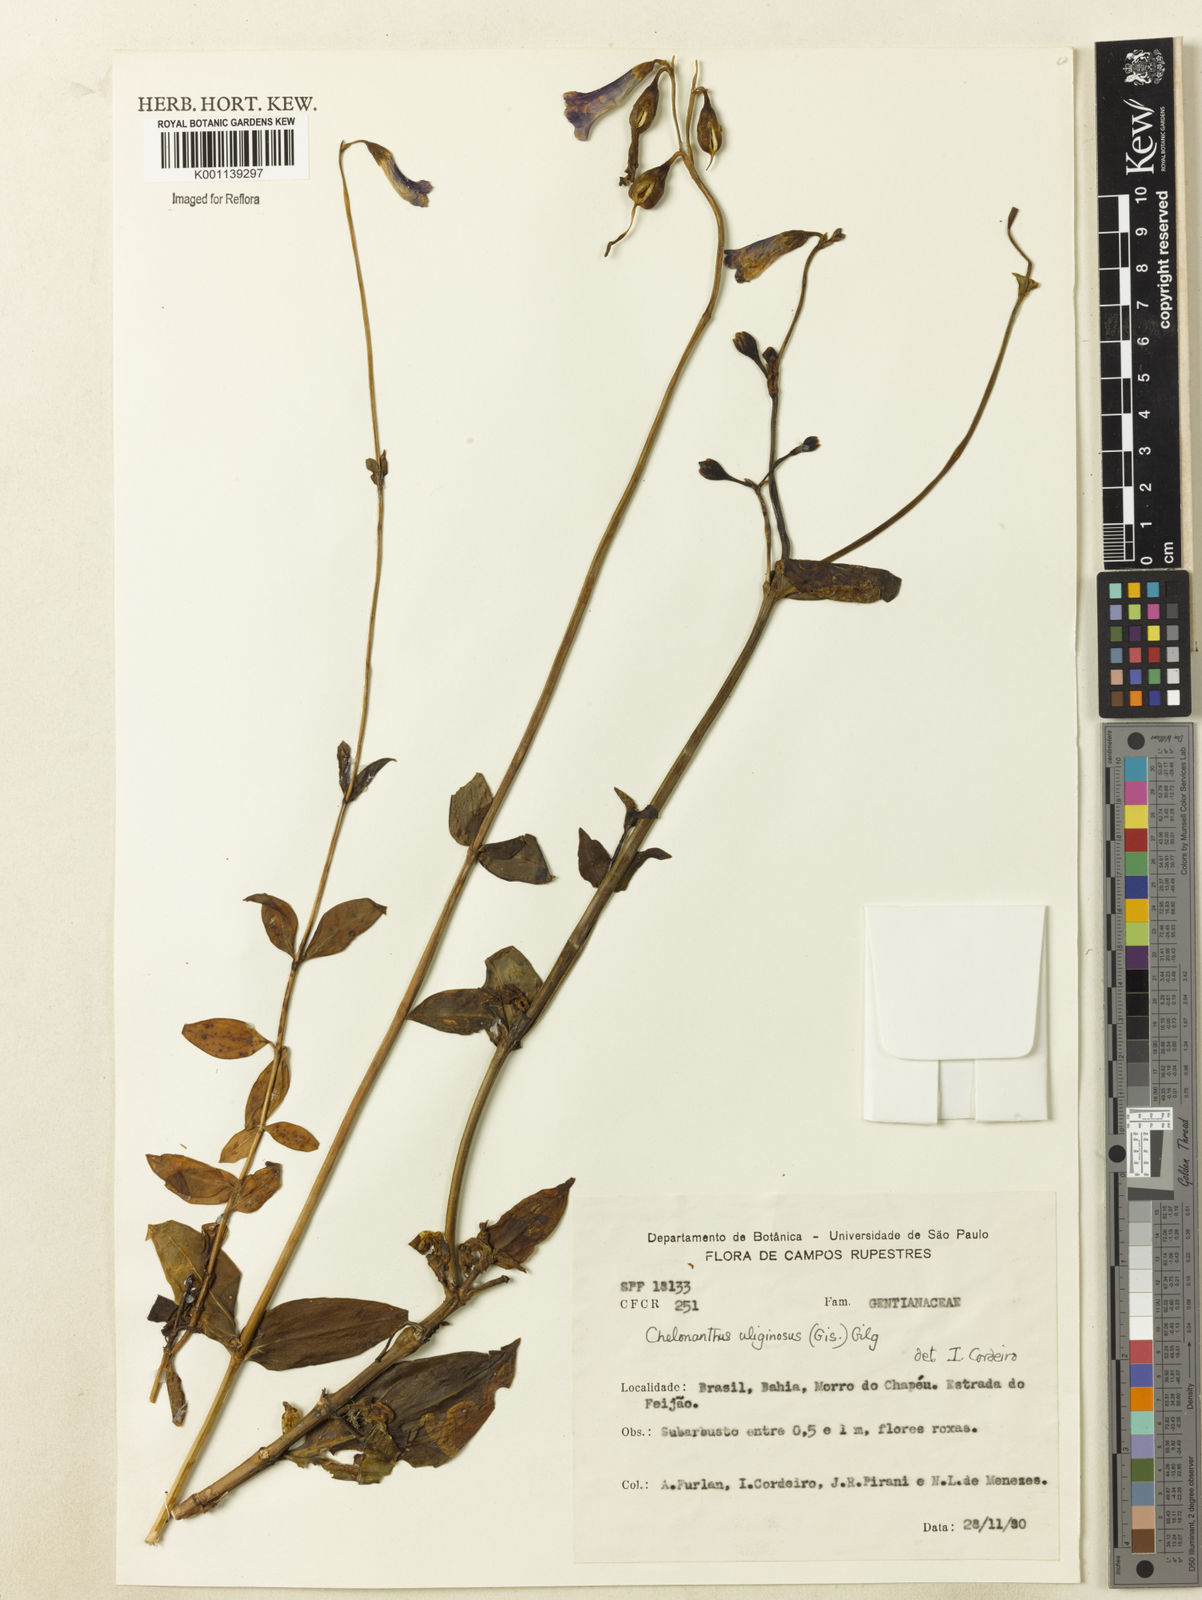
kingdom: Plantae
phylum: Tracheophyta
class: Magnoliopsida
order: Gentianales
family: Gentianaceae
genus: Chelonanthus
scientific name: Chelonanthus purpurascens
